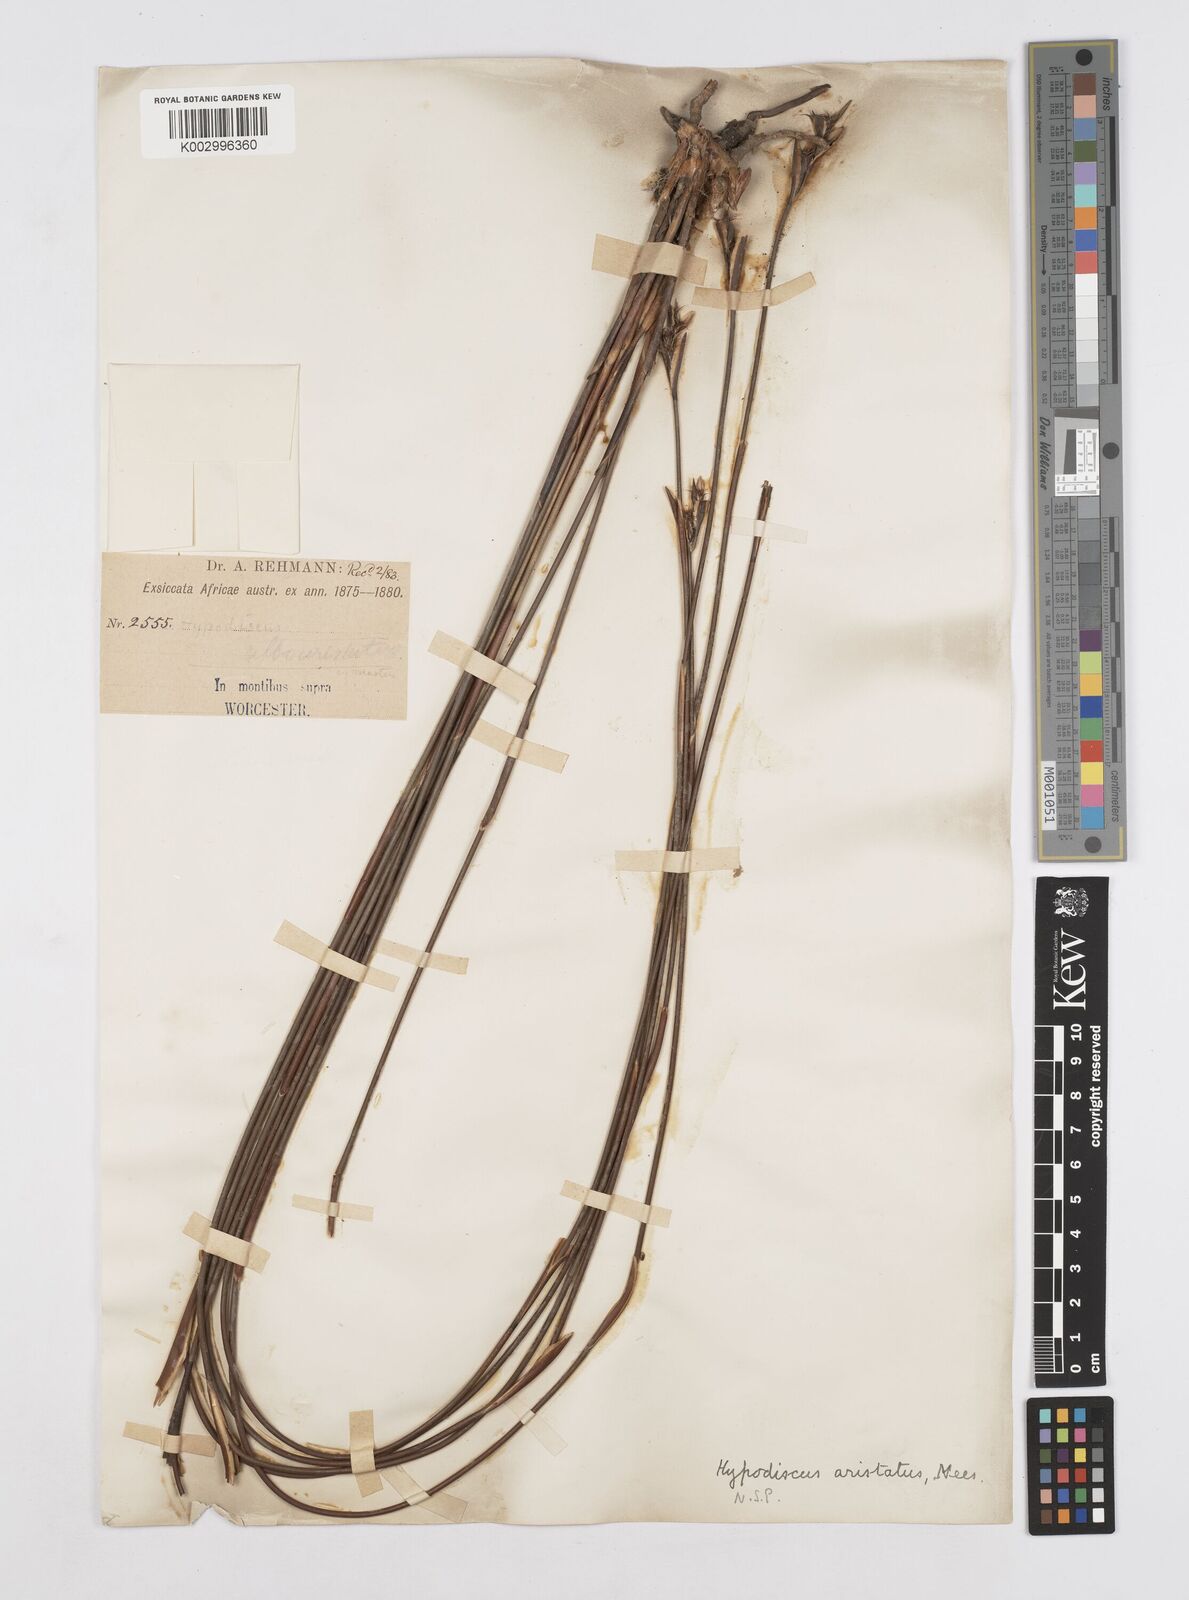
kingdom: Plantae
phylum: Tracheophyta
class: Liliopsida
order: Poales
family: Restionaceae
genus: Hypodiscus
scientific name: Hypodiscus aristatus
